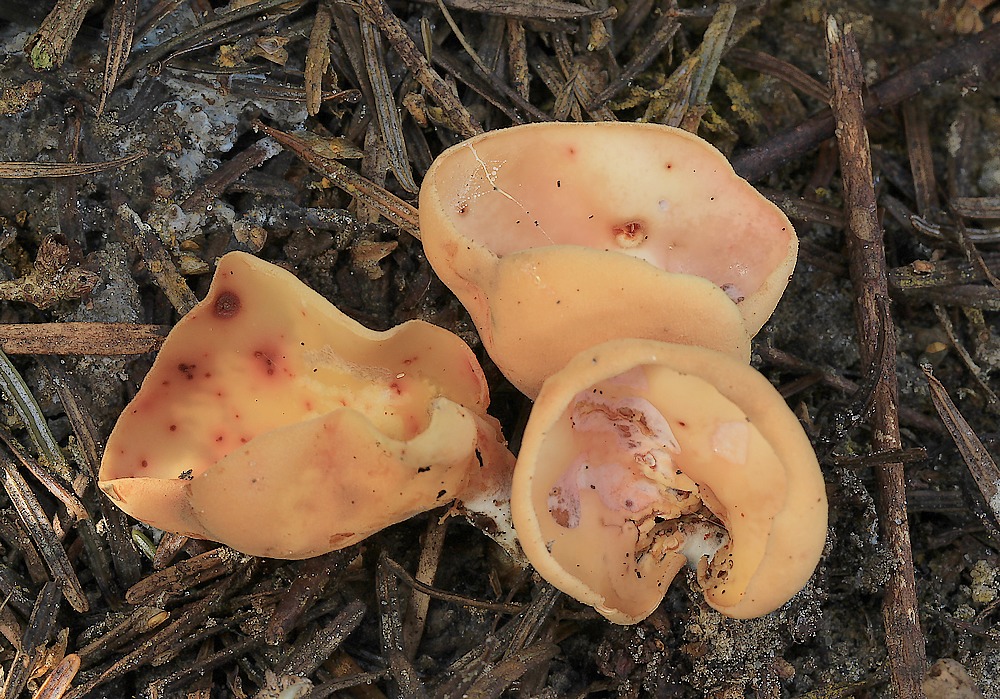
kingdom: Fungi
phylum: Ascomycota
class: Pezizomycetes
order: Pezizales
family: Otideaceae
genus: Otidea
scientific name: Otidea onotica
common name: æsel-ørebæger
